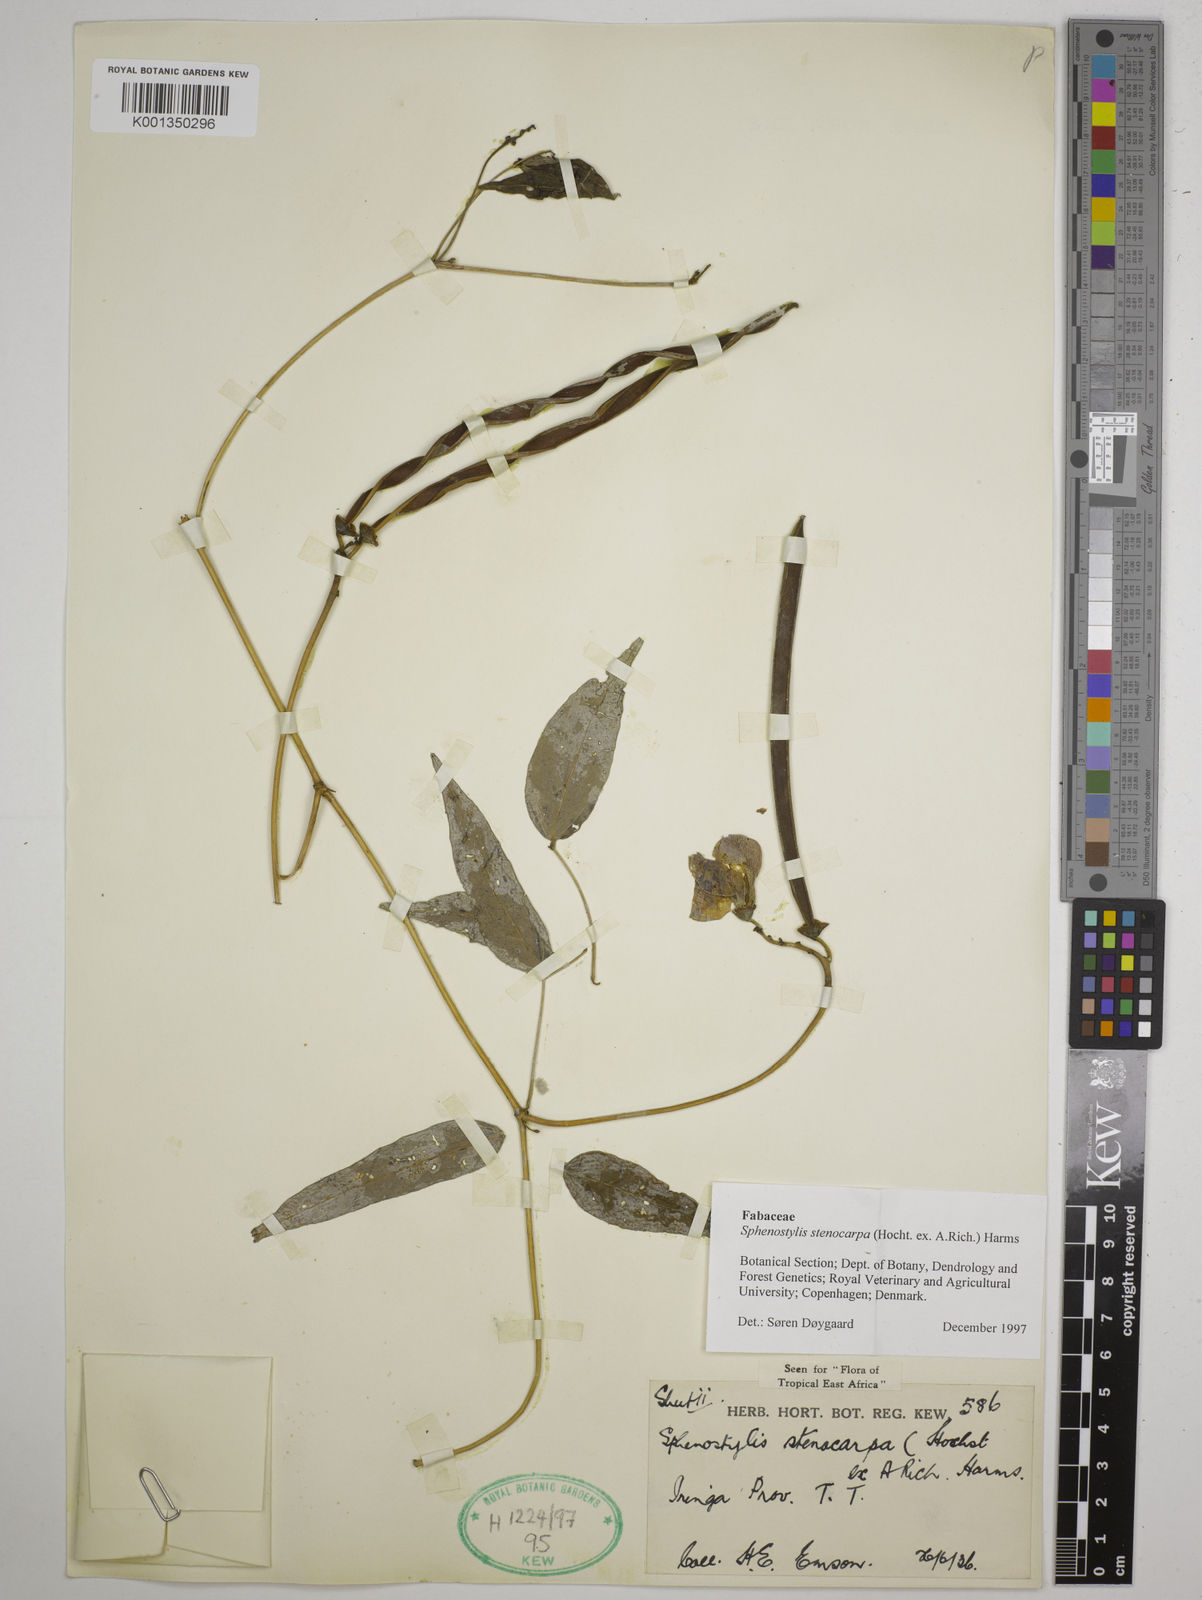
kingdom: Plantae
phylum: Tracheophyta
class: Magnoliopsida
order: Fabales
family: Fabaceae
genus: Sphenostylis
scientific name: Sphenostylis stenocarpa
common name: Yam-pea
